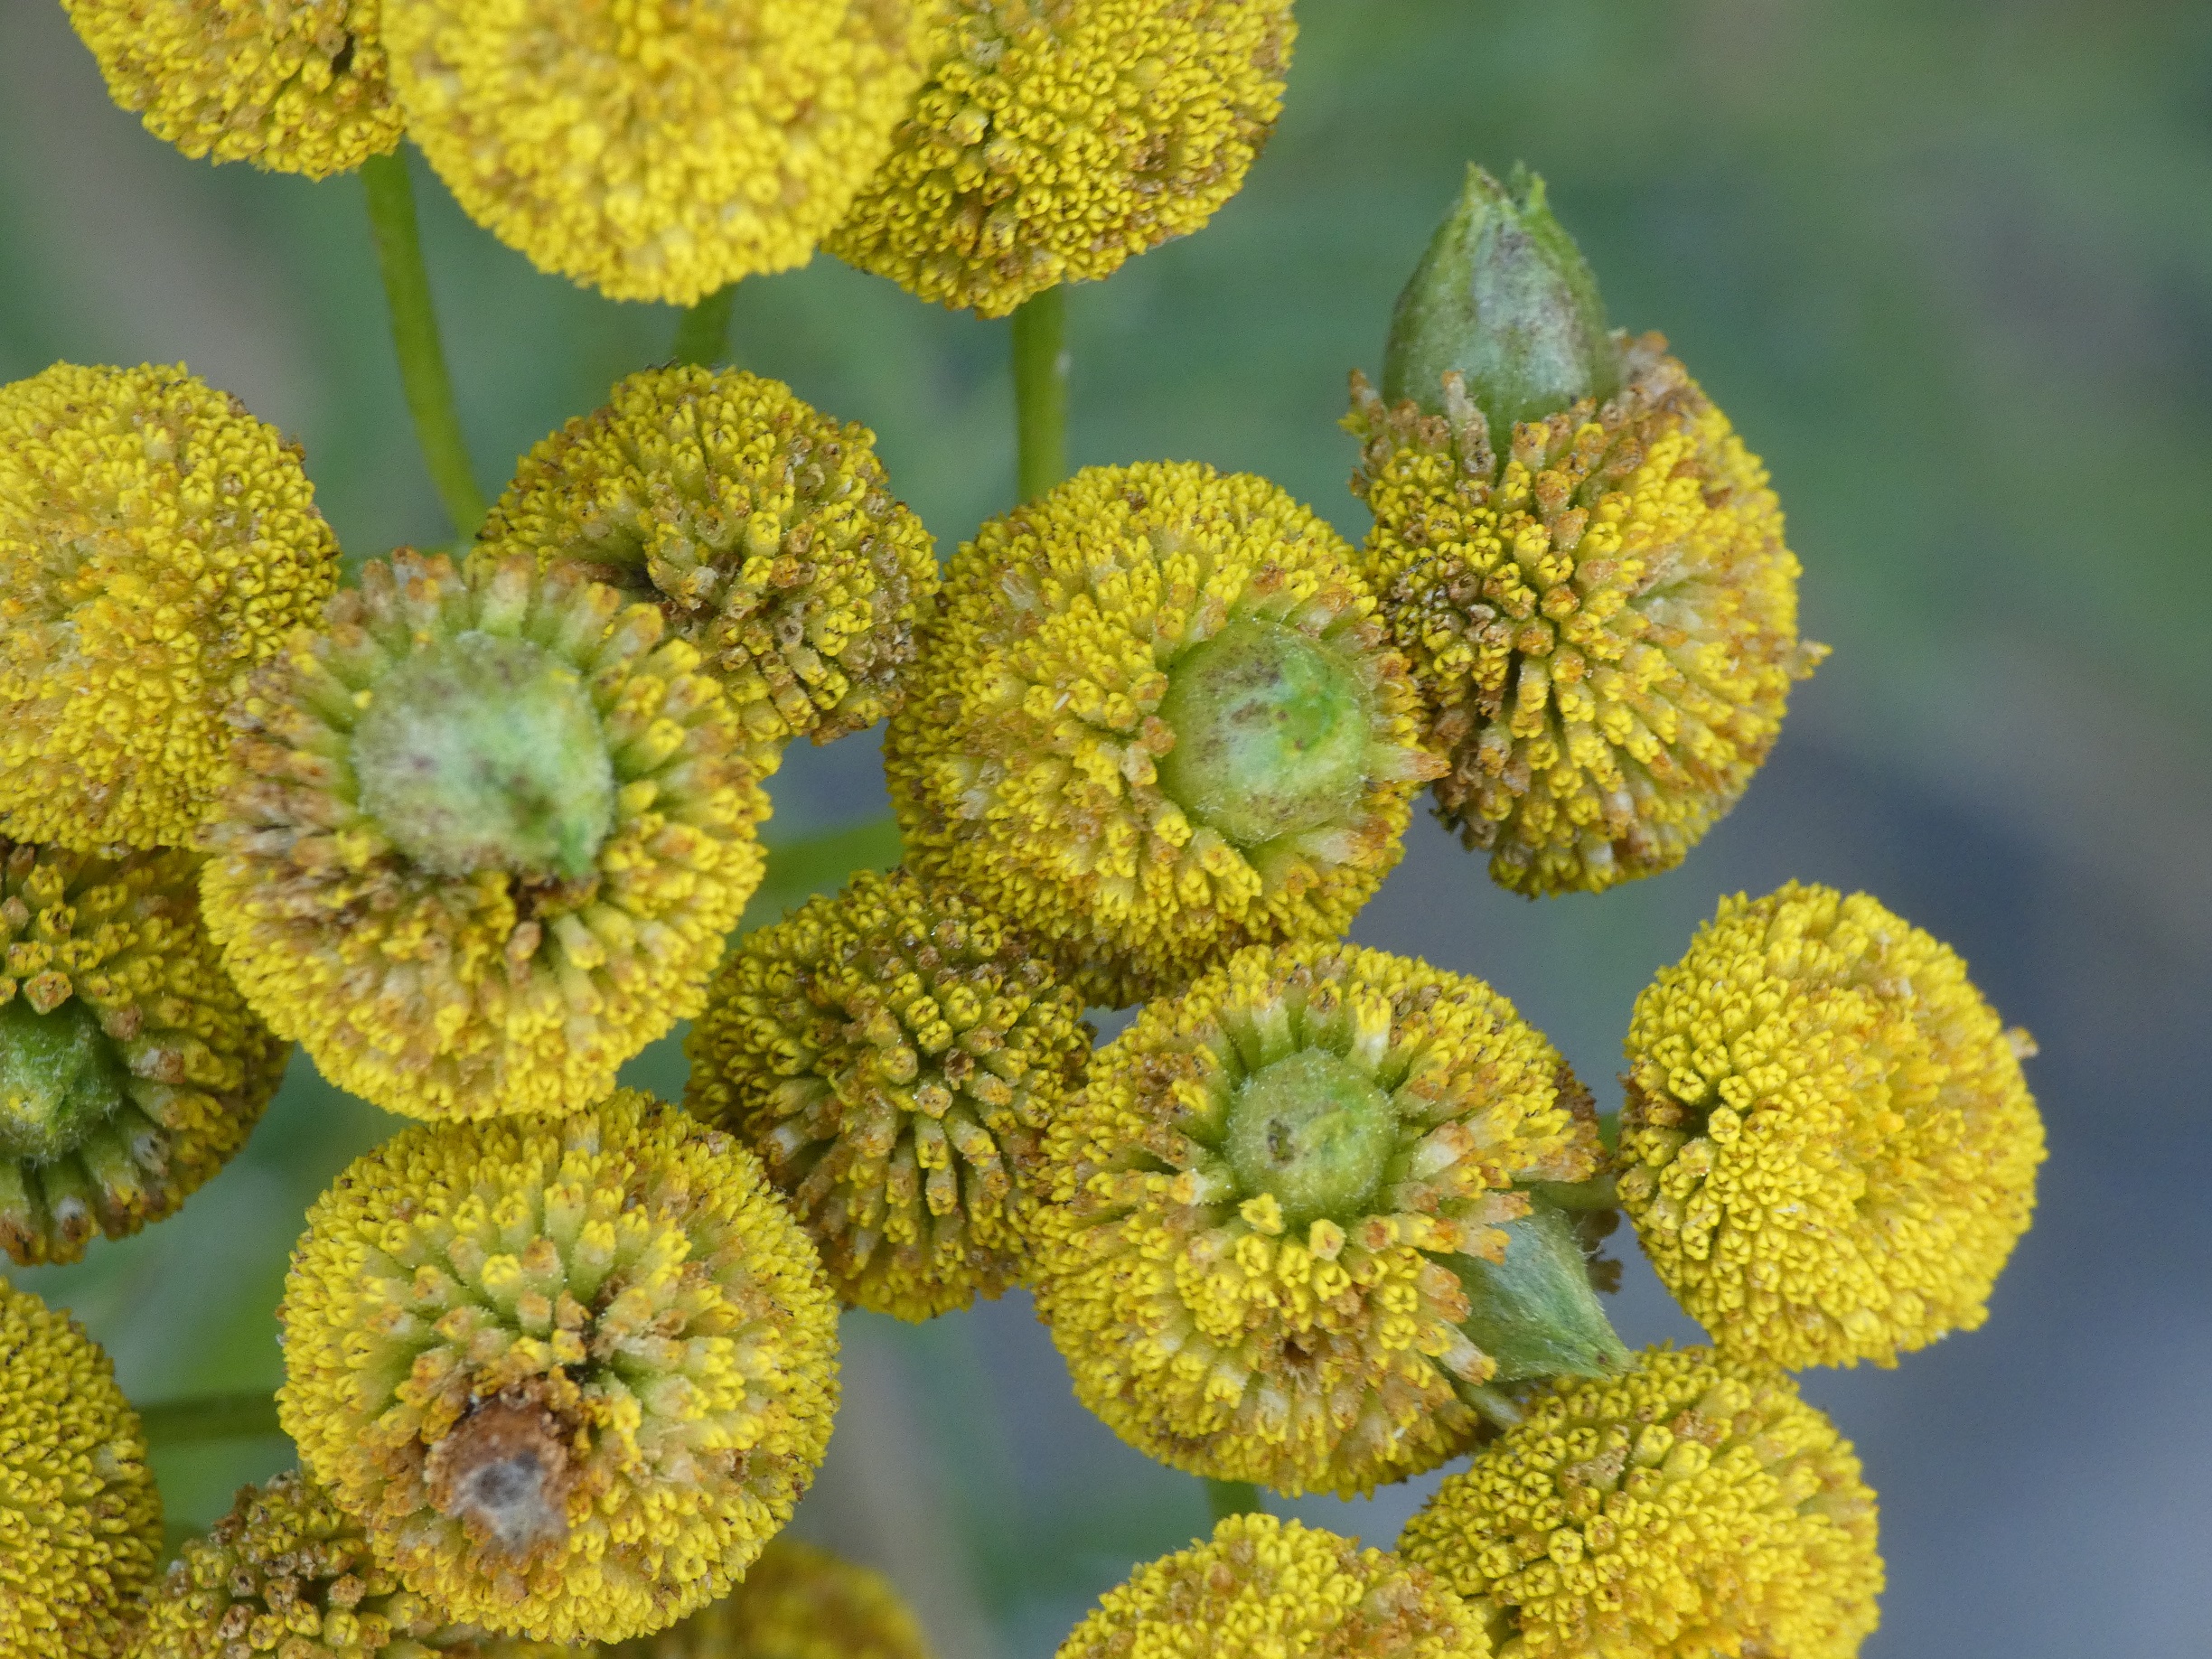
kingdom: Animalia
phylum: Arthropoda
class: Insecta
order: Diptera
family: Cecidomyiidae
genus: Rhopalomyia
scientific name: Rhopalomyia tanaceticolus
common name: Rejnfangalmyg
